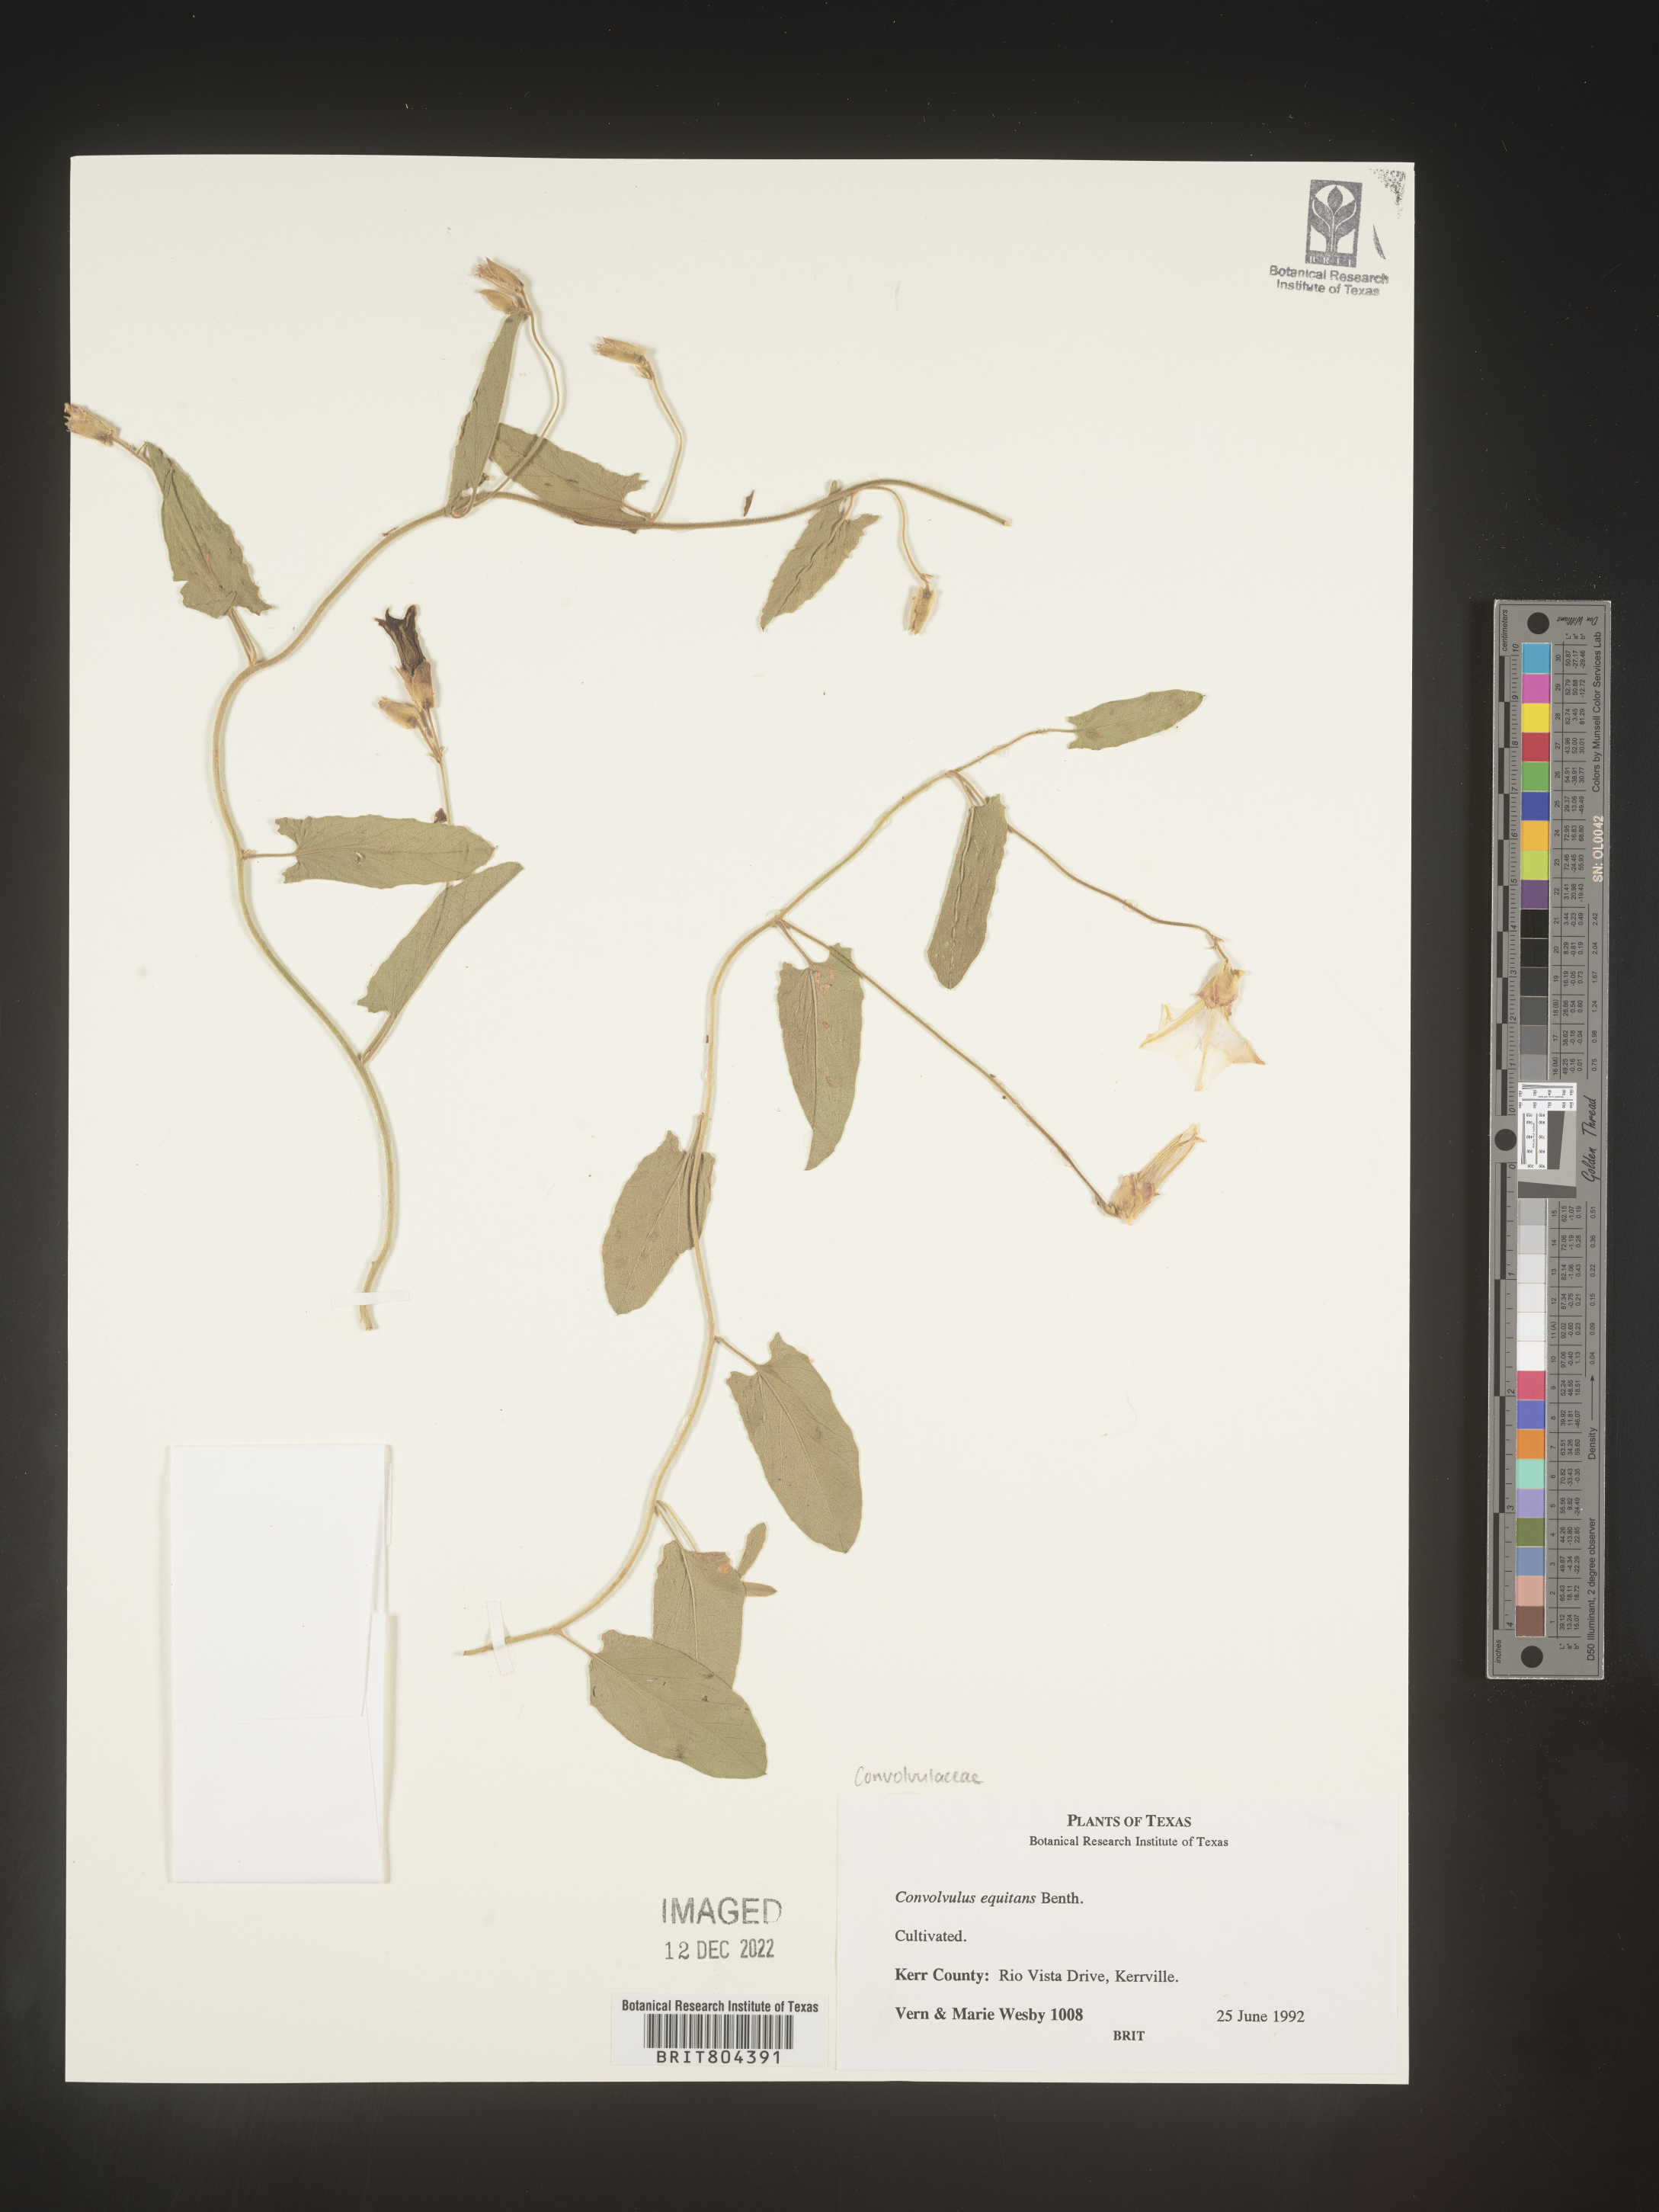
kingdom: Plantae
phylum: Tracheophyta
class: Magnoliopsida
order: Solanales
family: Convolvulaceae
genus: Convolvulus
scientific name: Convolvulus
